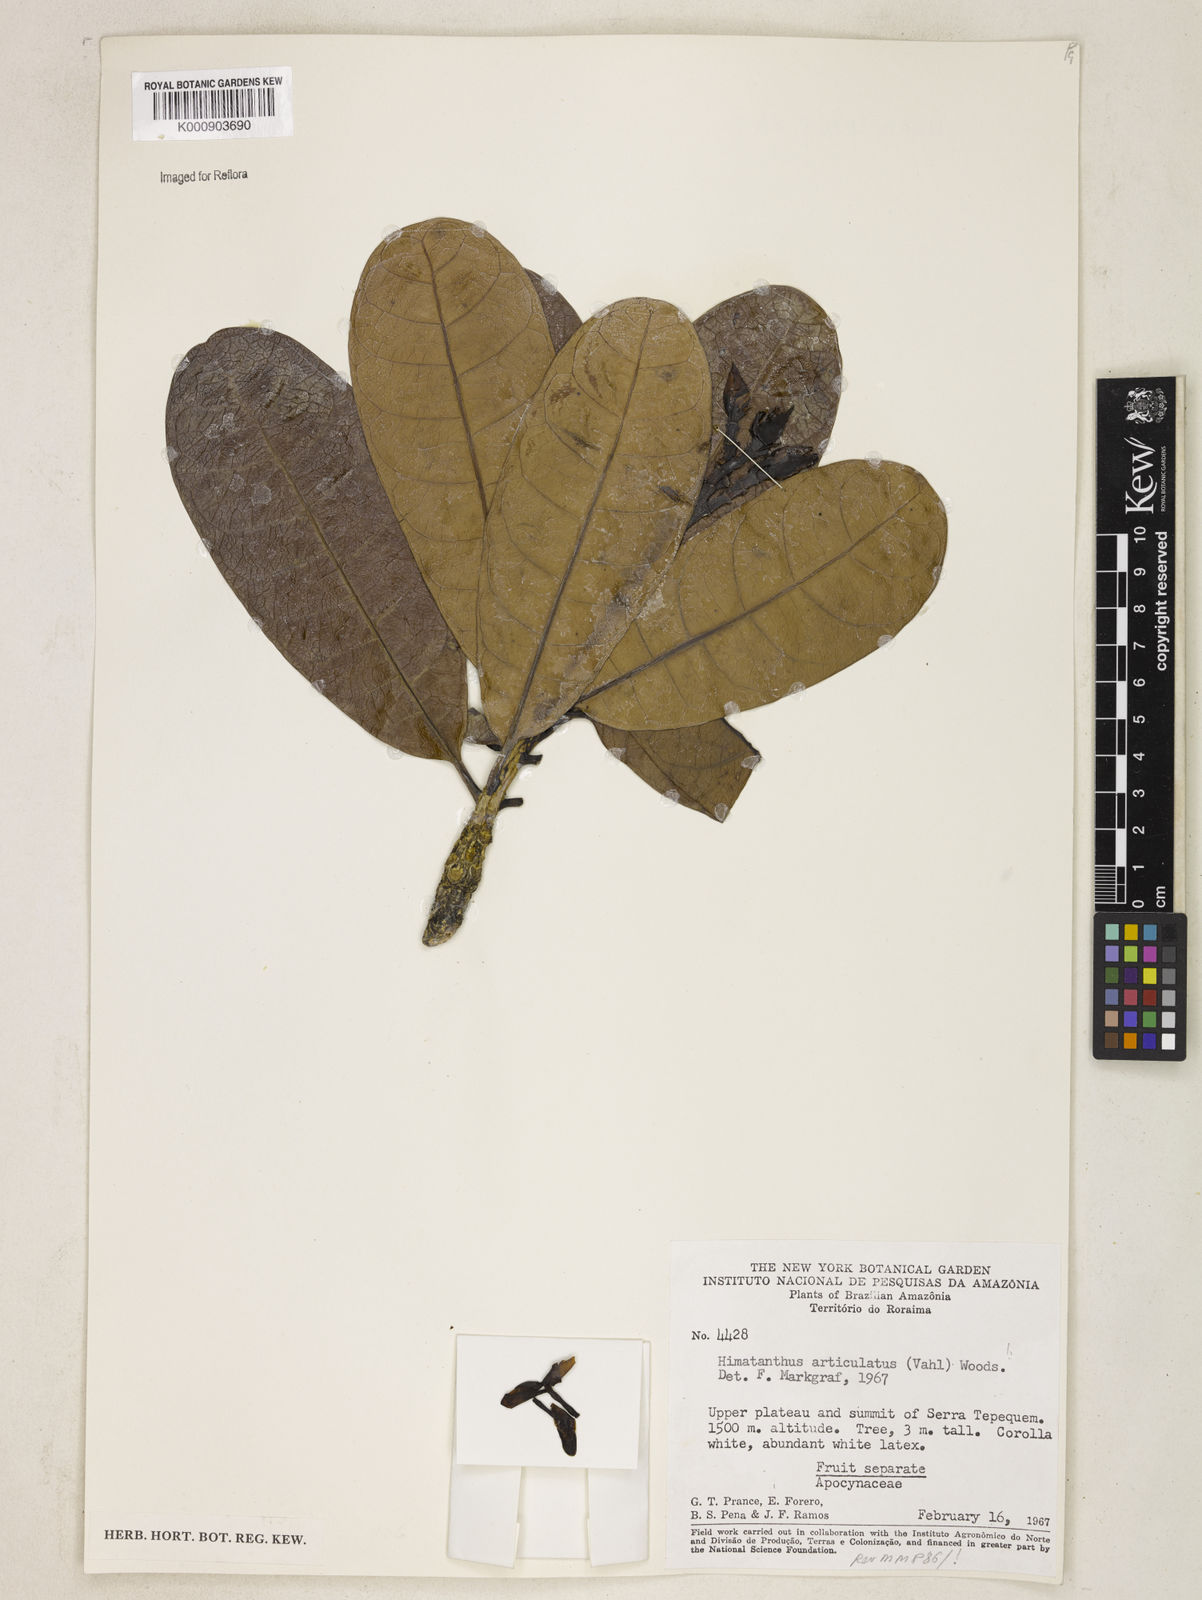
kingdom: Plantae
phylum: Tracheophyta
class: Magnoliopsida
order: Gentianales
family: Apocynaceae
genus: Himatanthus
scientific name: Himatanthus articulatus
